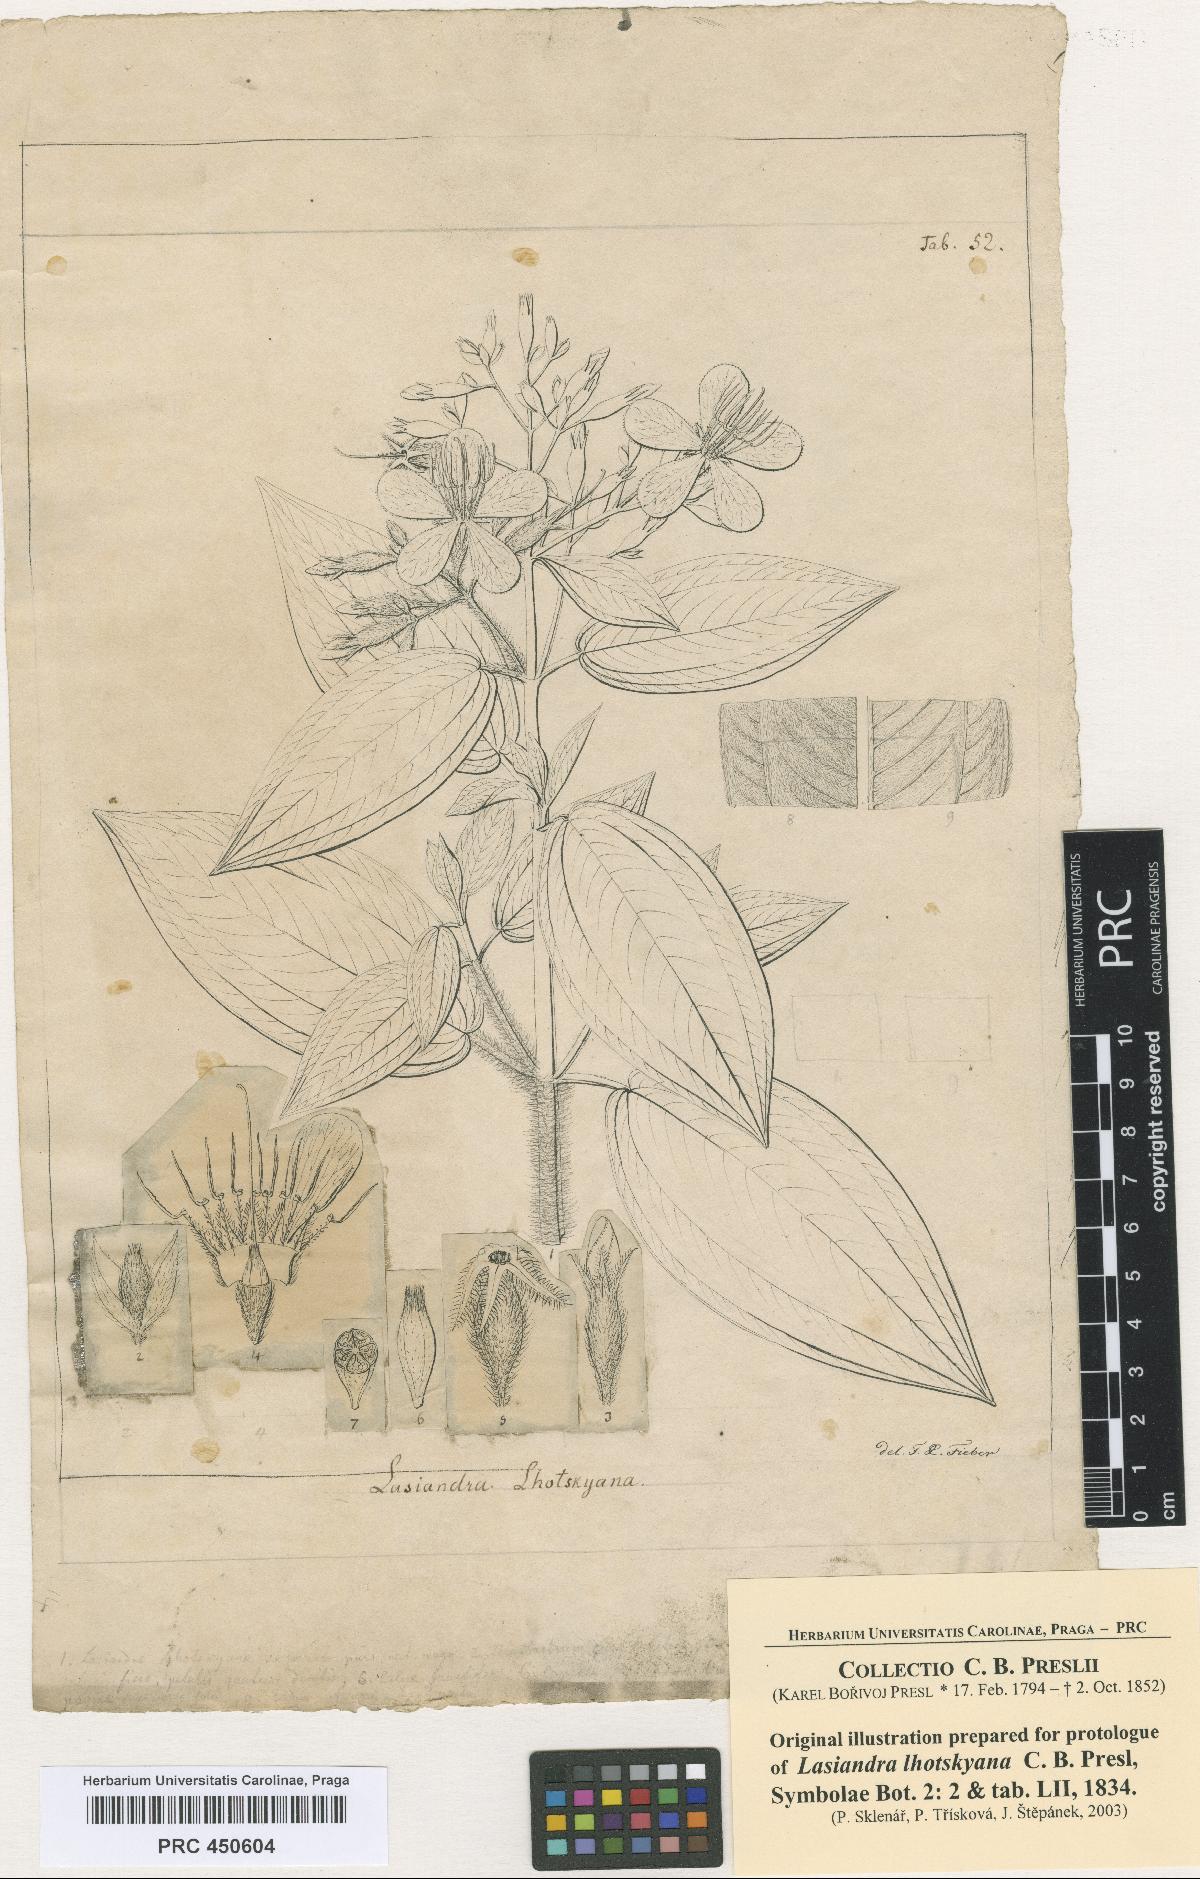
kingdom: Plantae
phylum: Tracheophyta
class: Magnoliopsida
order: Myrtales
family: Melastomataceae
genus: Chaetogastra
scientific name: Chaetogastra lhotskyana
